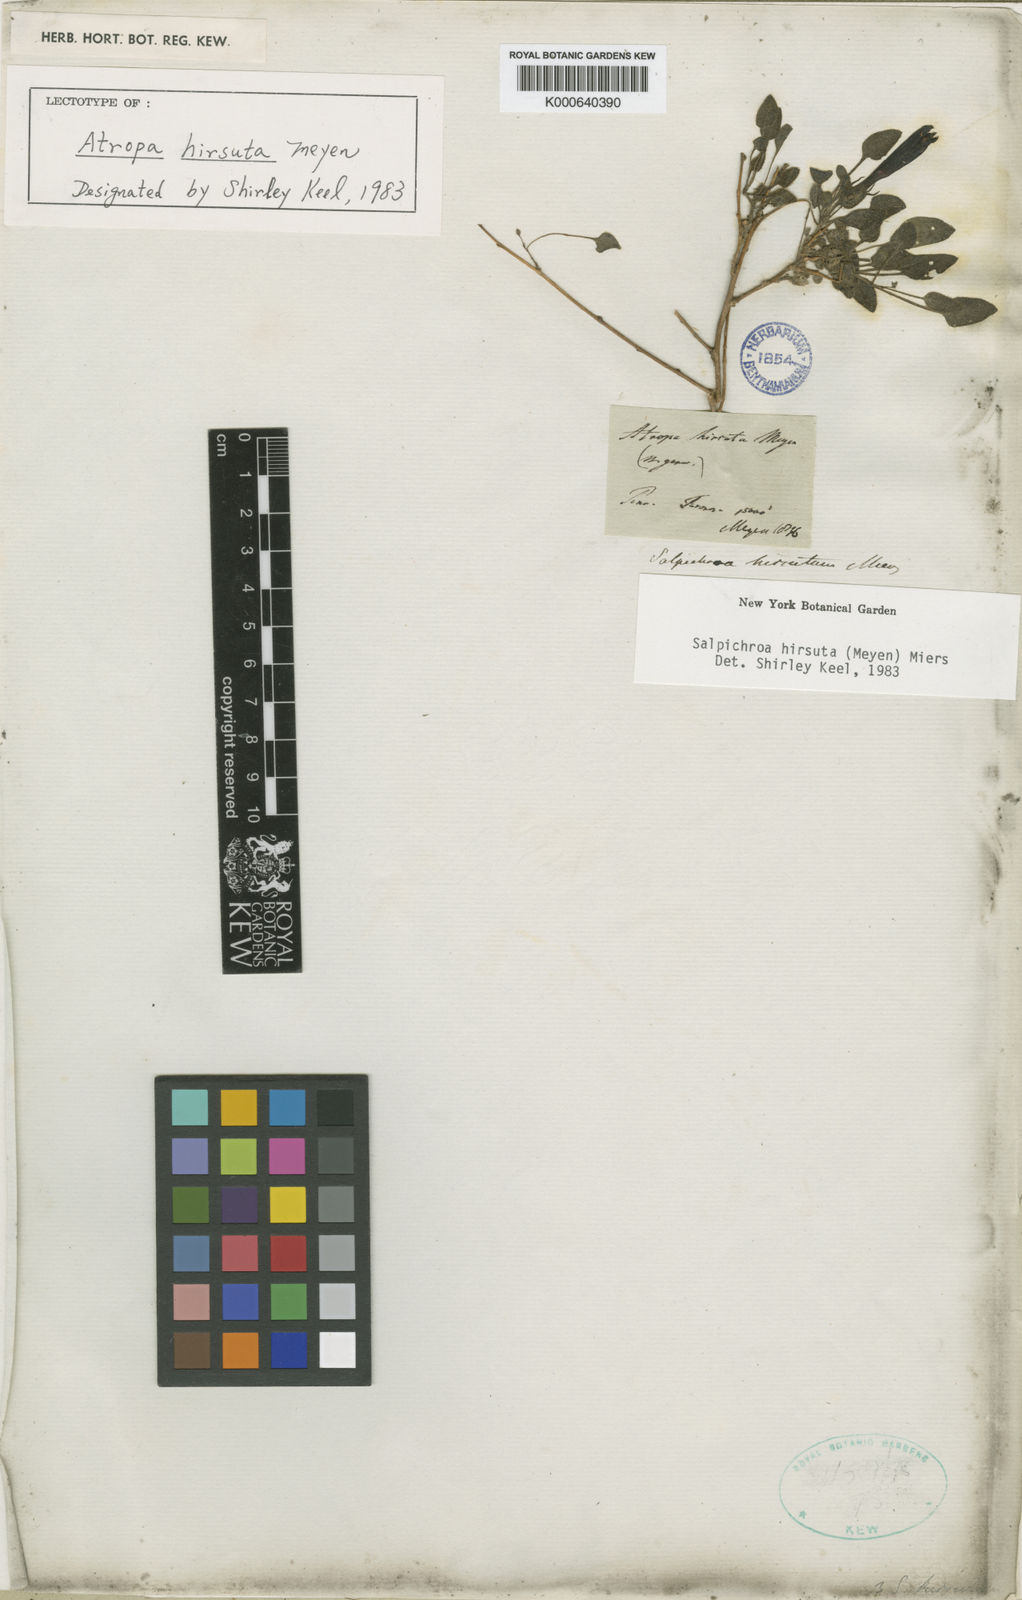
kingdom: Plantae
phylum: Tracheophyta
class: Magnoliopsida
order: Solanales
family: Solanaceae
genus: Salpichroa
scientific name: Salpichroa hirsuta
